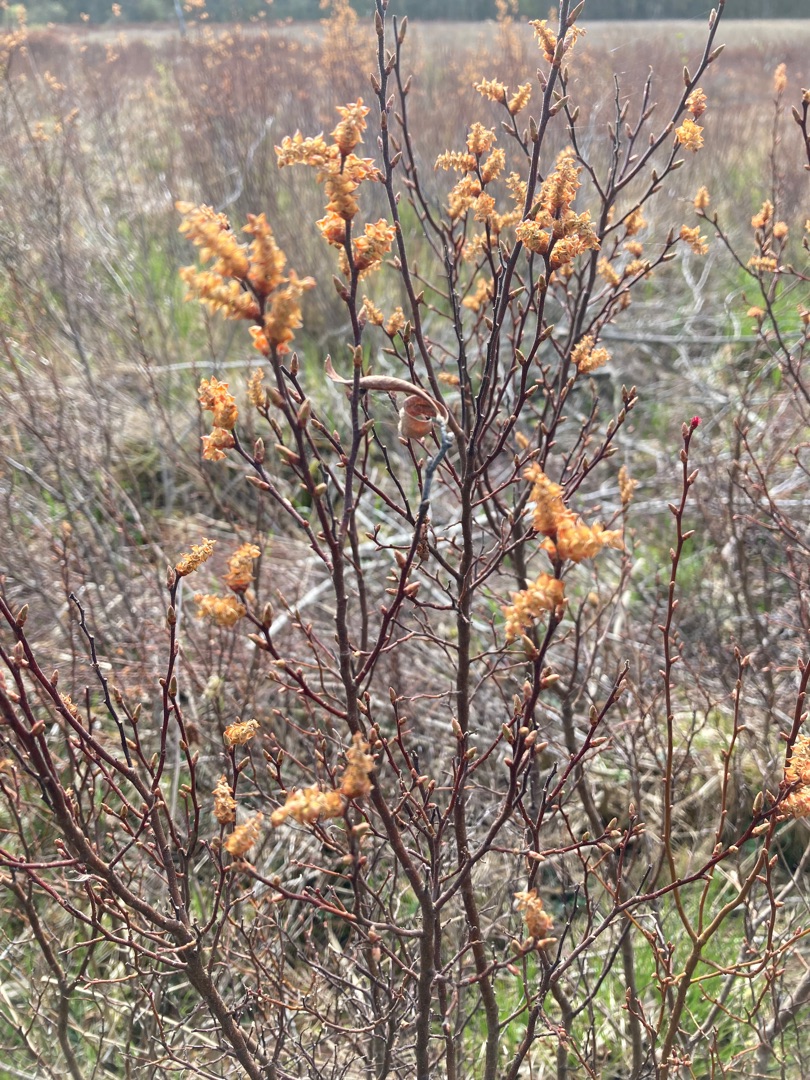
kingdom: Plantae
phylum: Tracheophyta
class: Magnoliopsida
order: Fagales
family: Myricaceae
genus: Myrica
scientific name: Myrica gale
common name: Pors
